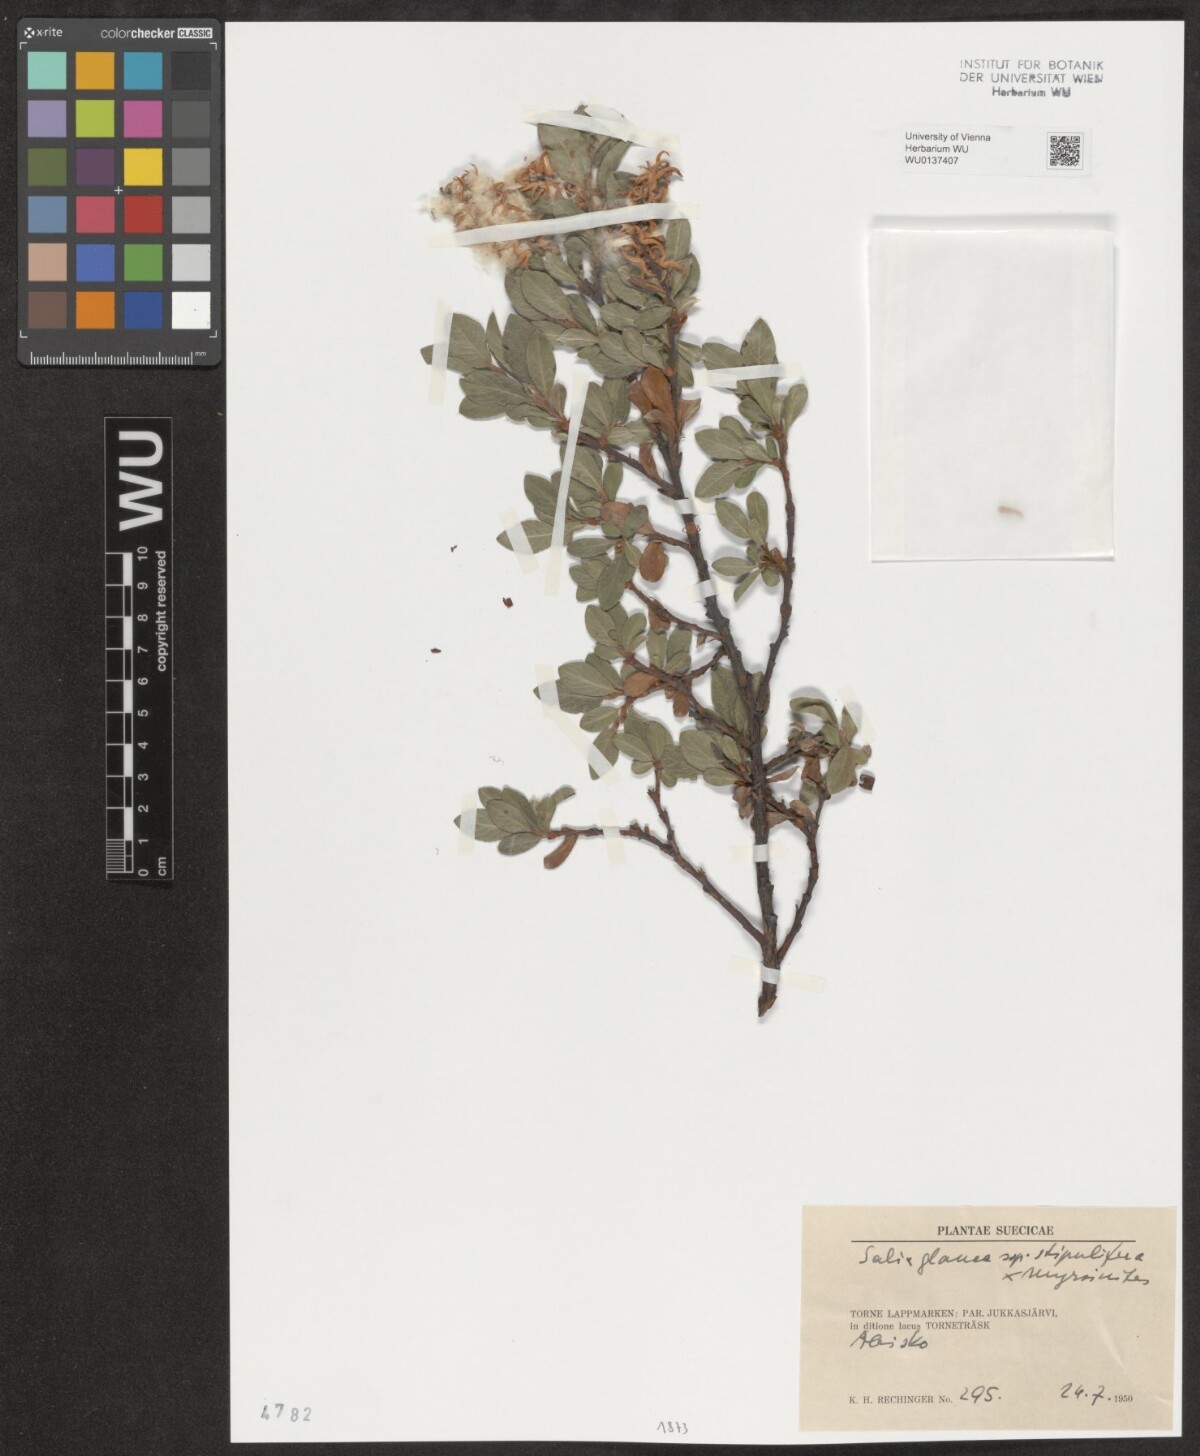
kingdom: Plantae
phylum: Tracheophyta
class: Magnoliopsida
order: Malpighiales
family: Salicaceae
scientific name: Salicaceae
